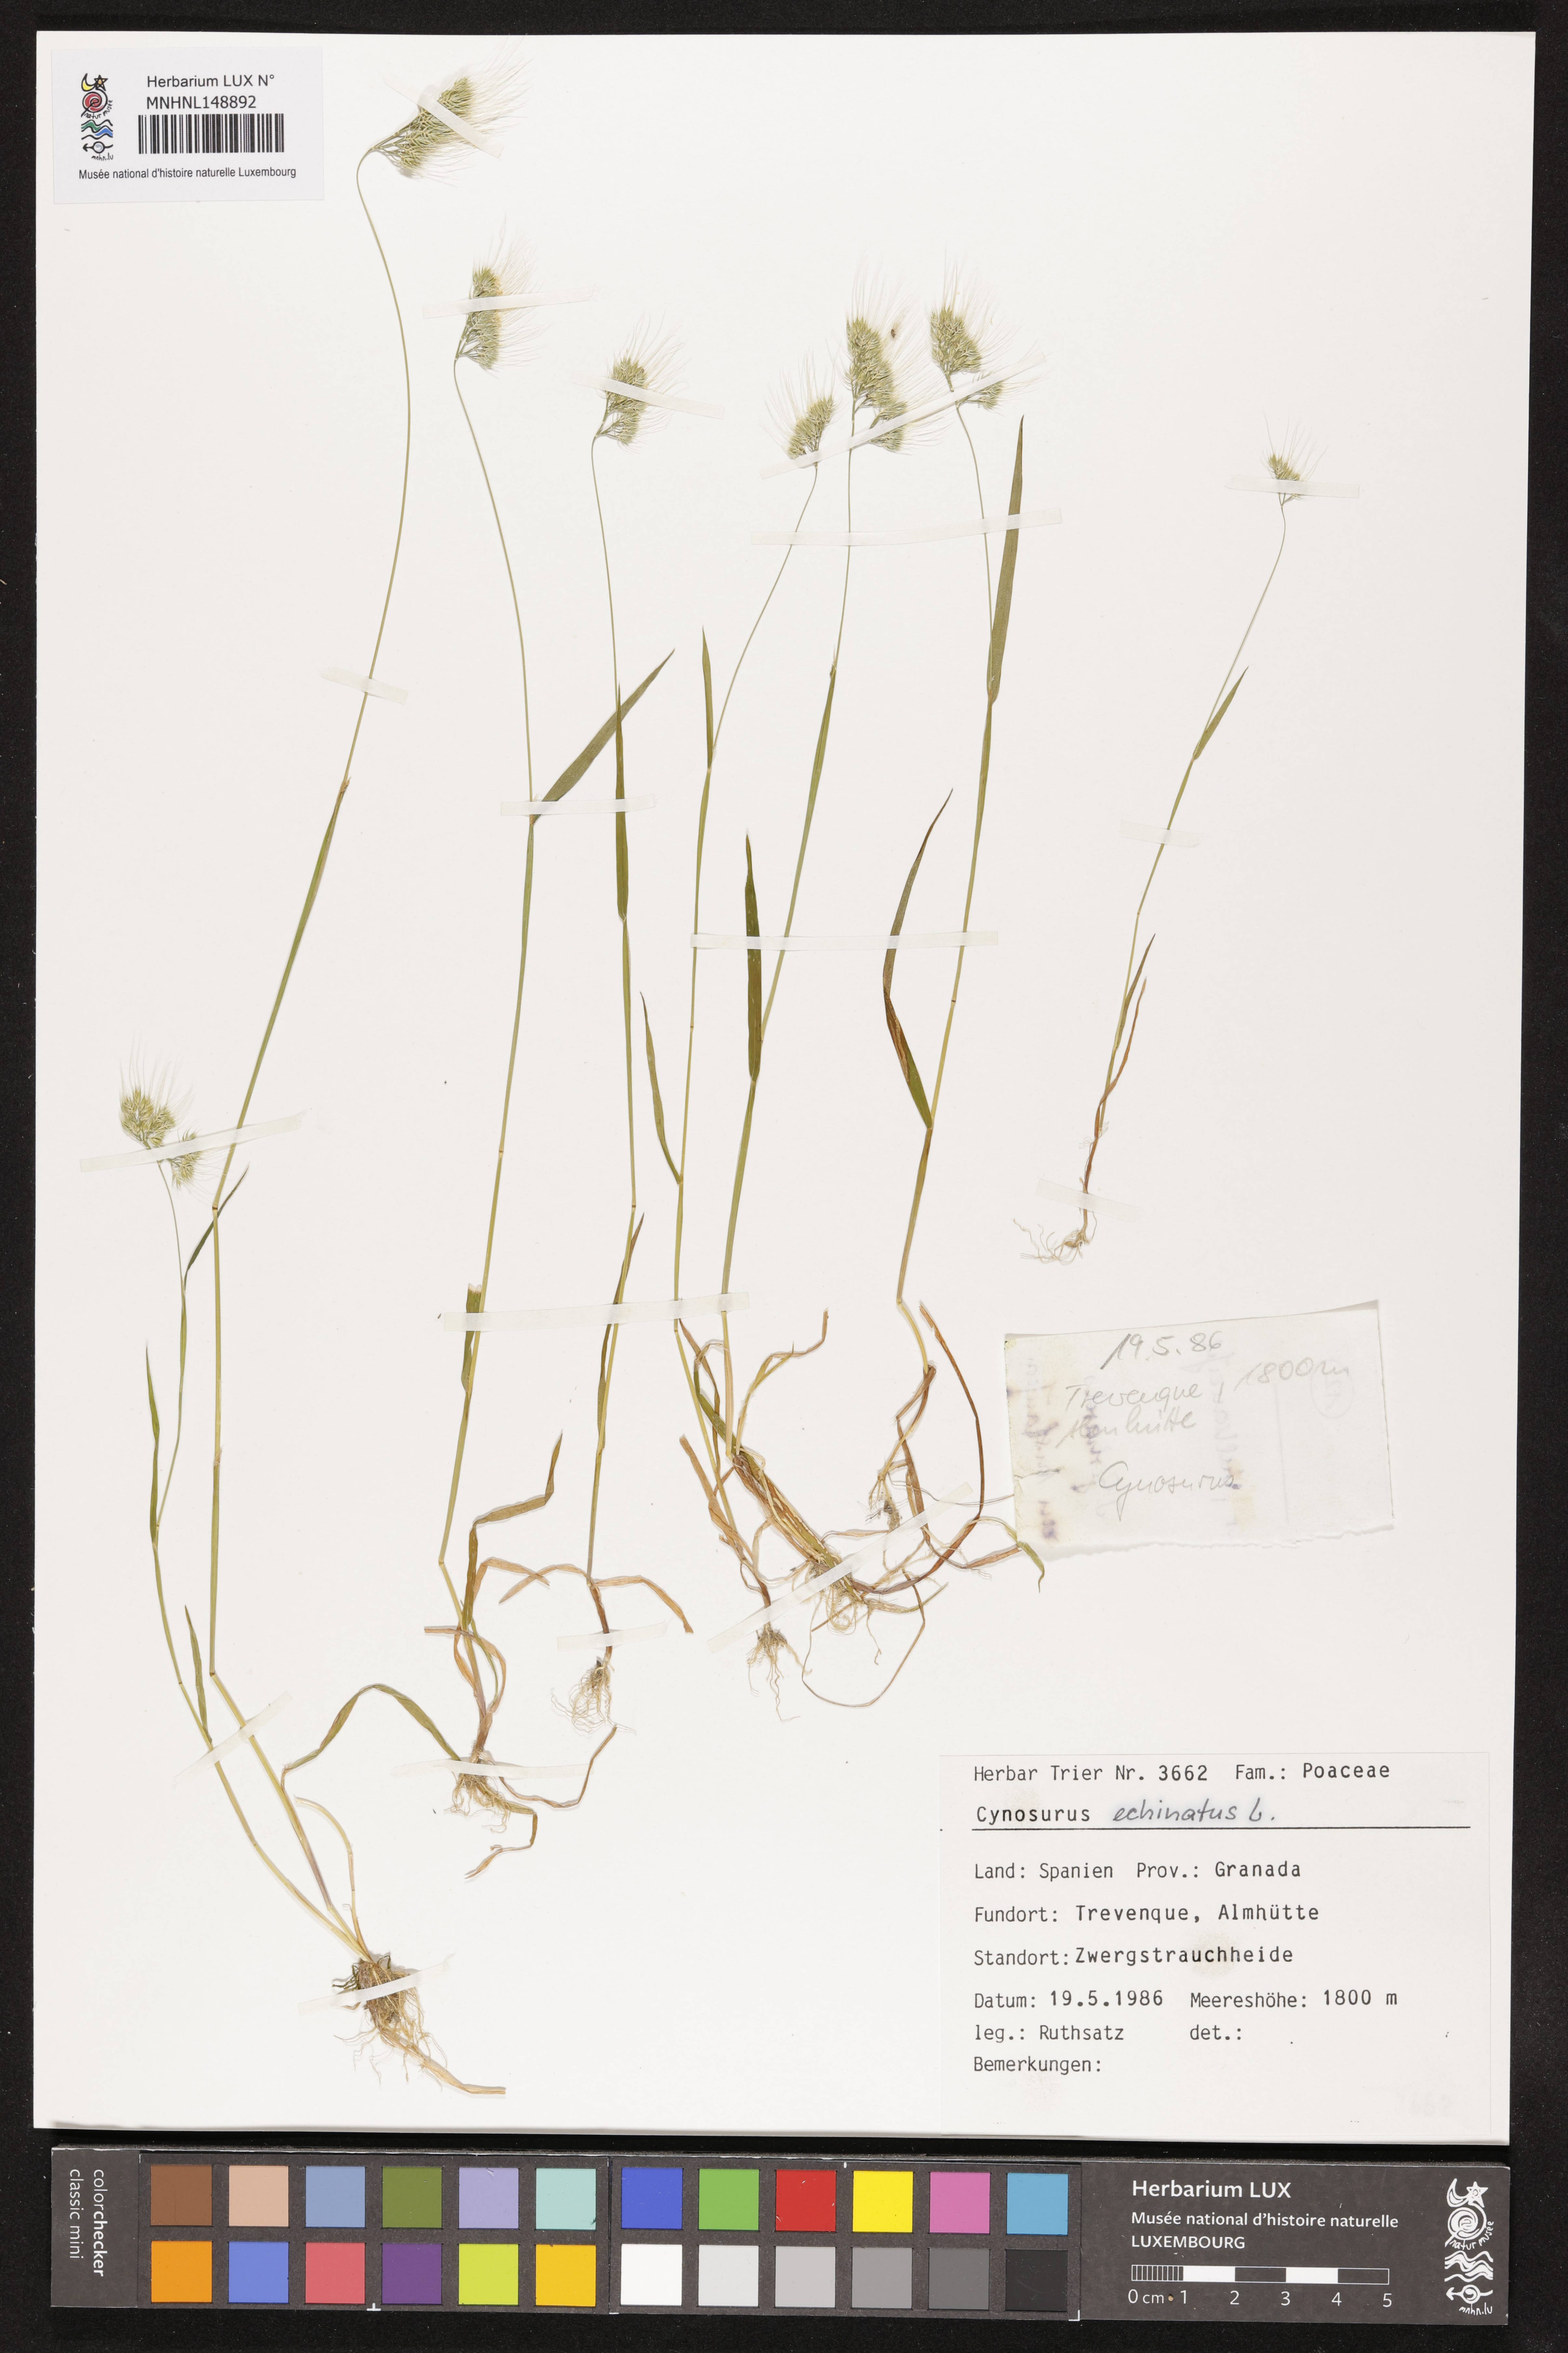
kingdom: Plantae
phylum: Tracheophyta
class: Liliopsida
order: Poales
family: Poaceae
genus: Cynosurus
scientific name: Cynosurus echinatus
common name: Rough dog's-tail
